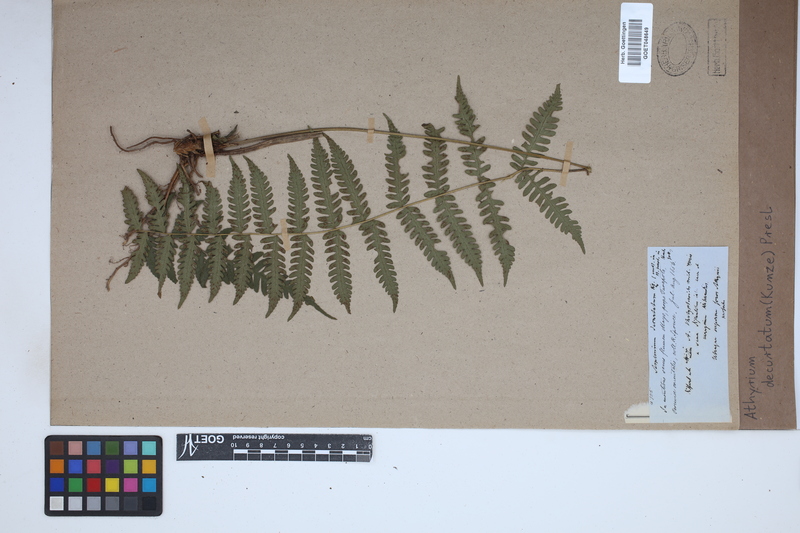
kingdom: Plantae
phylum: Tracheophyta
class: Polypodiopsida
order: Polypodiales
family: Thelypteridaceae
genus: Amauropelta
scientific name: Amauropelta decurtata
